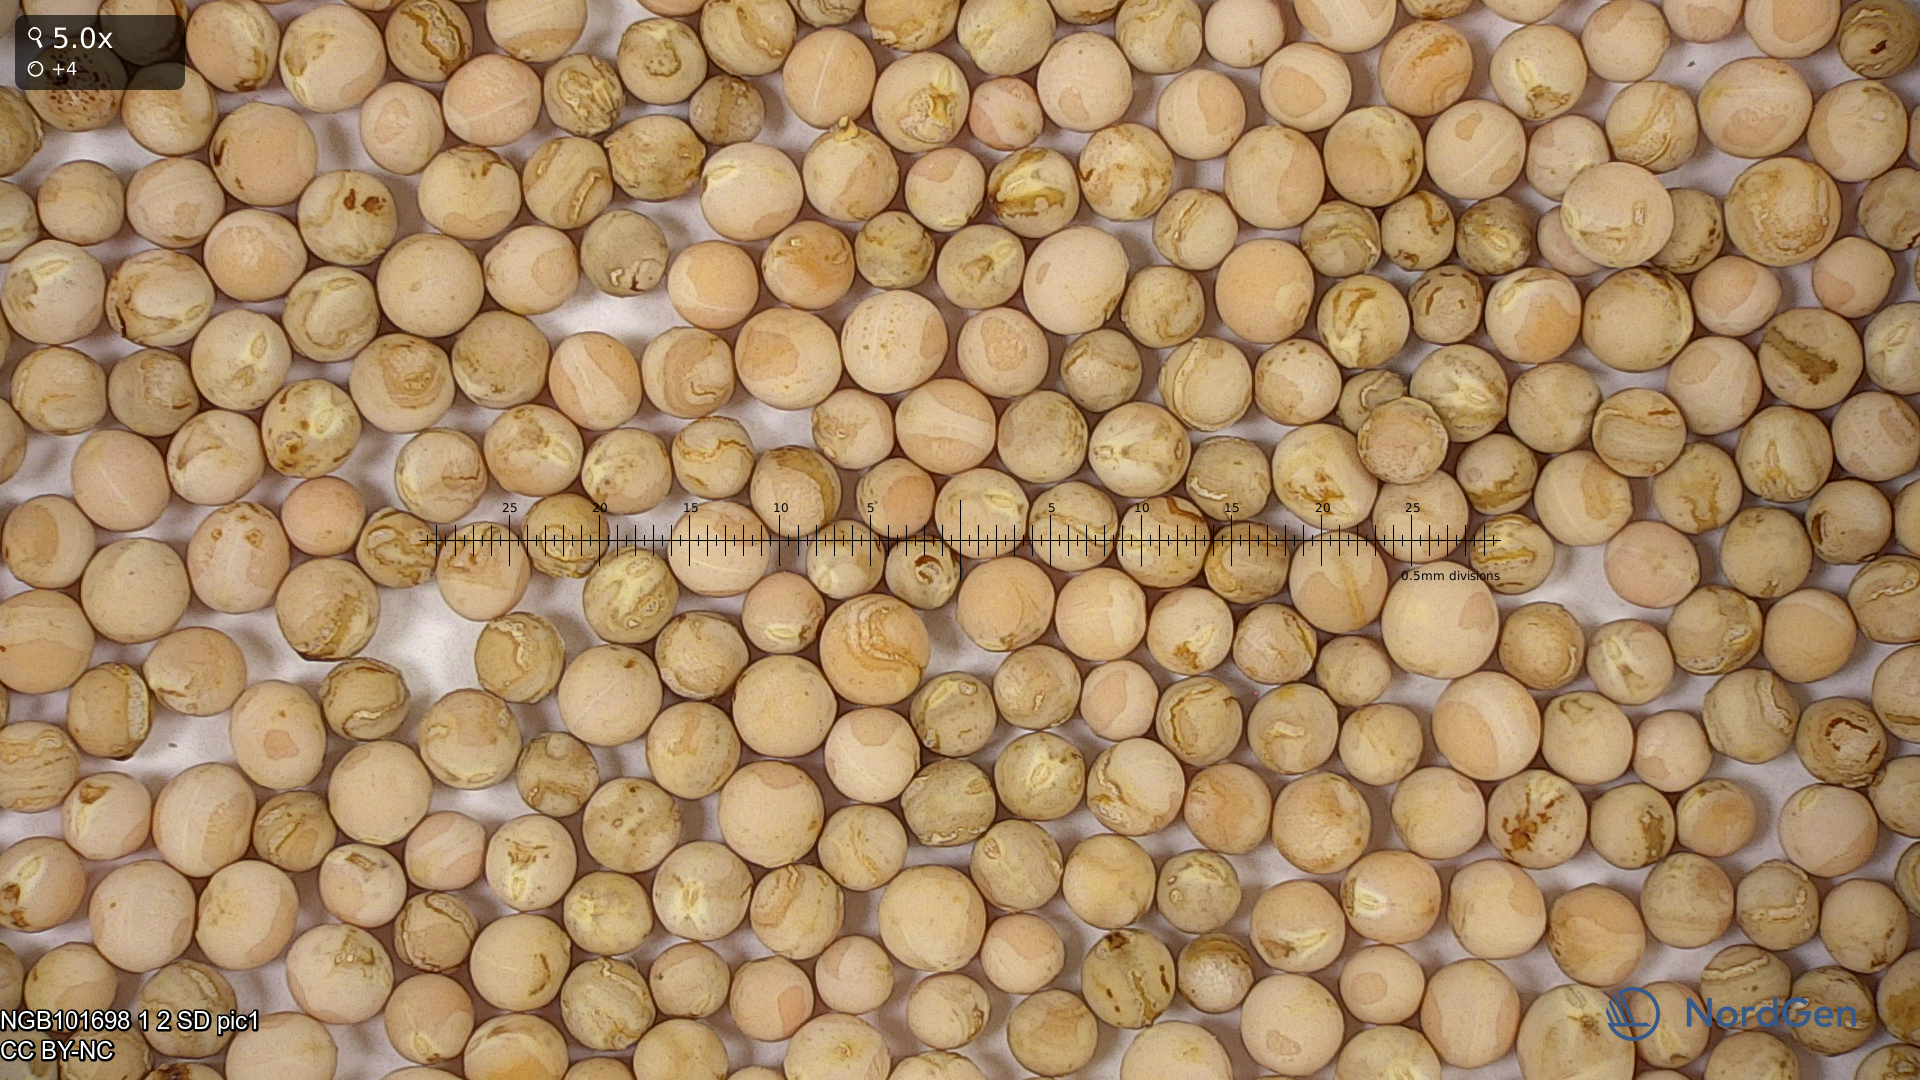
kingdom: Plantae
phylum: Tracheophyta
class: Magnoliopsida
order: Fabales
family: Fabaceae
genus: Lathyrus
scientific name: Lathyrus oleraceus
